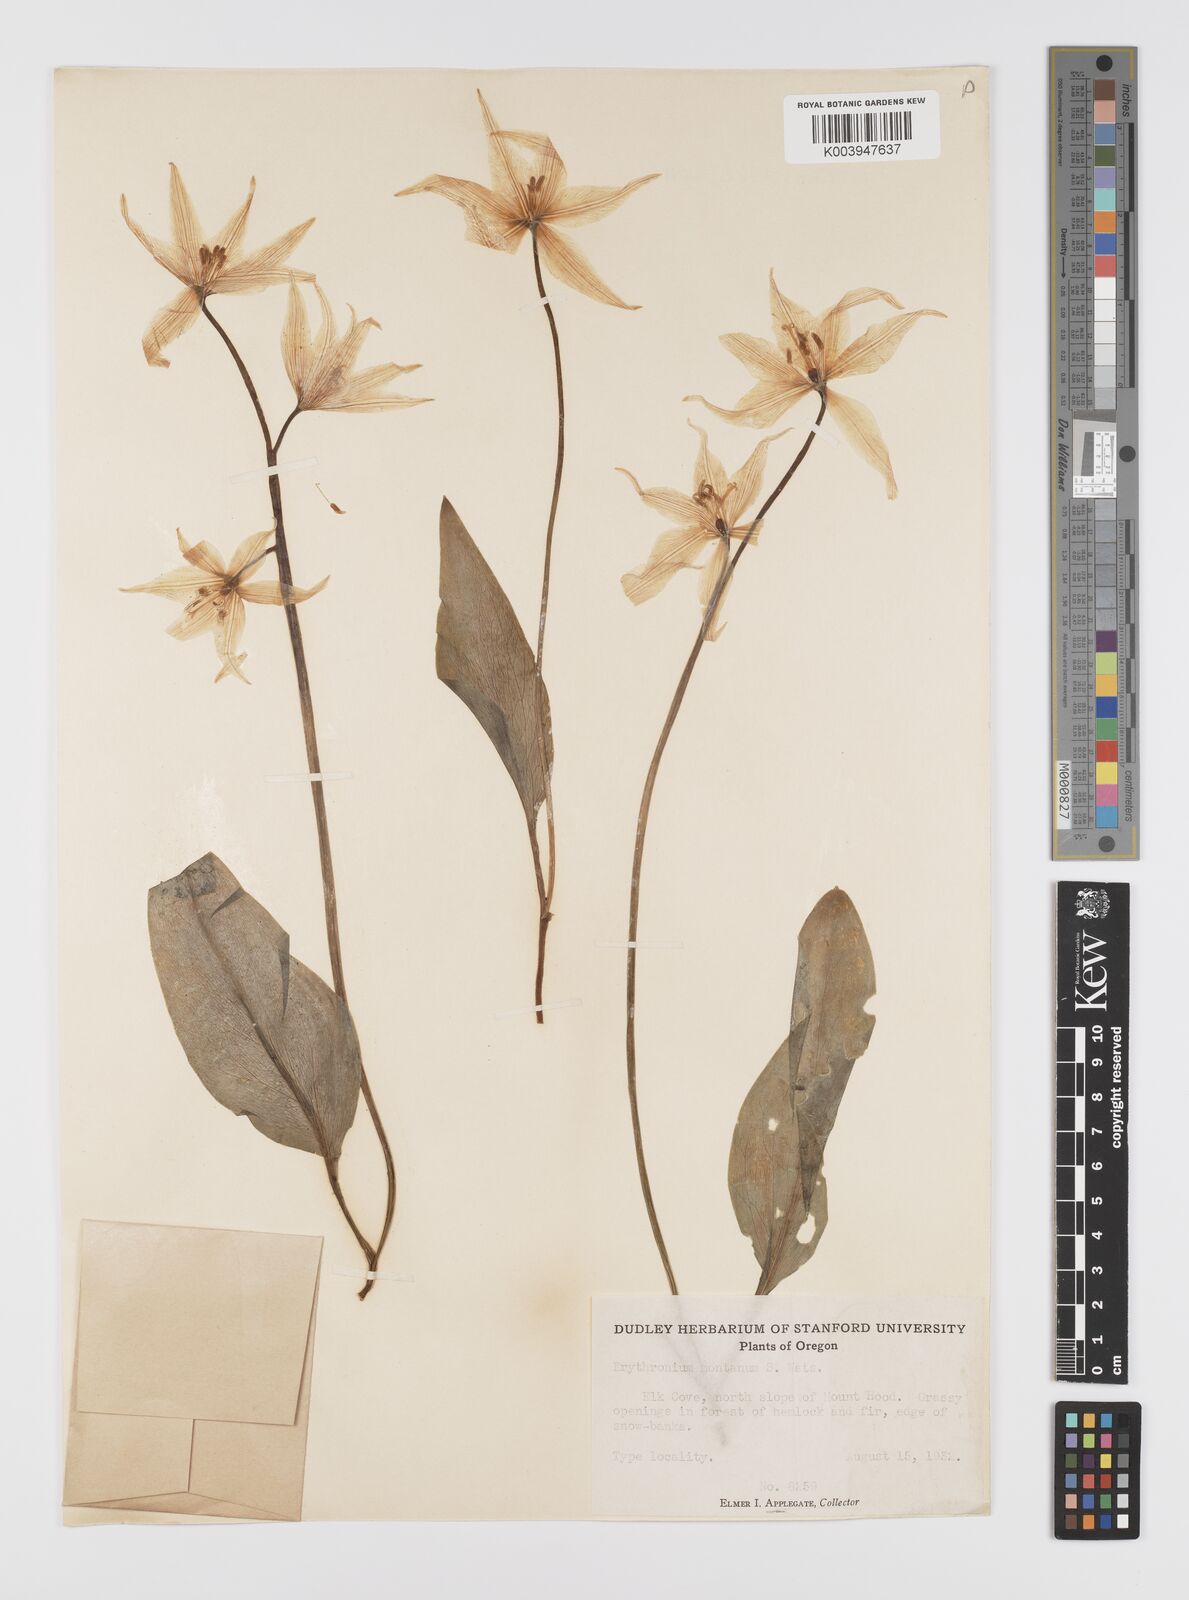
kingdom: Plantae
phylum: Tracheophyta
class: Liliopsida
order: Liliales
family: Liliaceae
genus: Erythronium
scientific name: Erythronium montanum
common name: Avalanche lily
